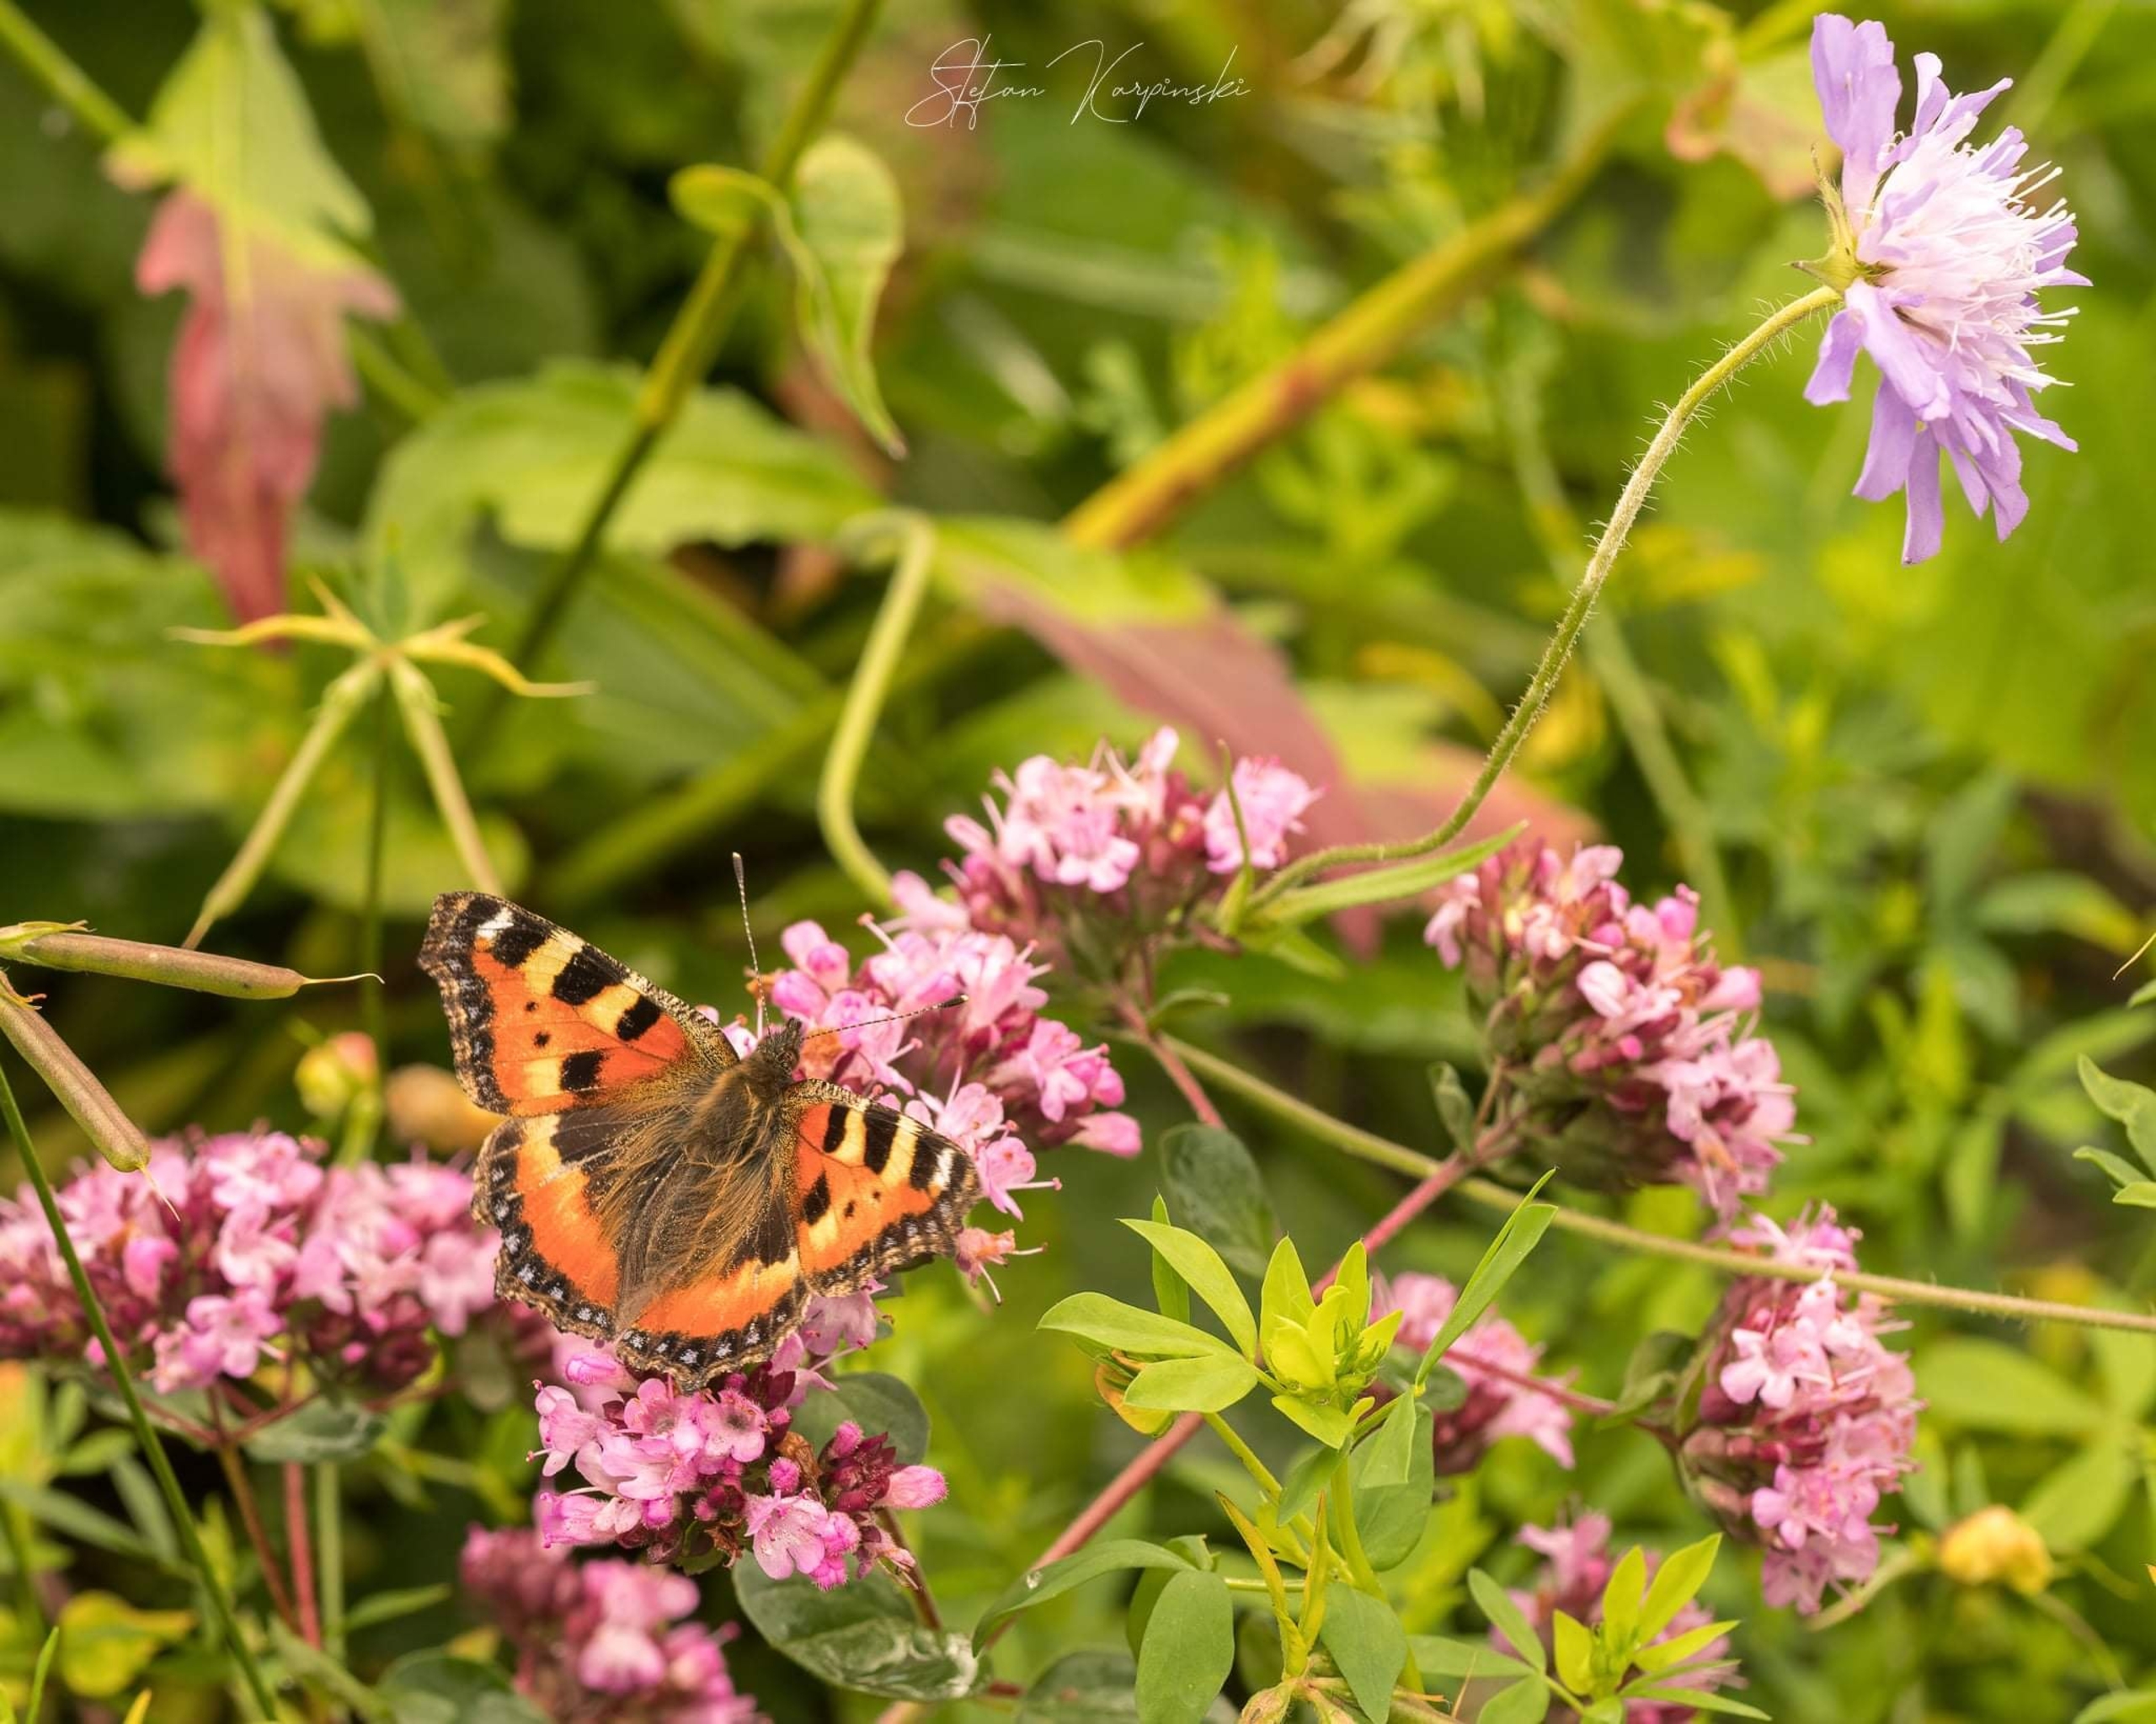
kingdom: Animalia
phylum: Arthropoda
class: Insecta
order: Lepidoptera
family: Nymphalidae
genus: Aglais
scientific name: Aglais urticae
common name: Nældens takvinge
